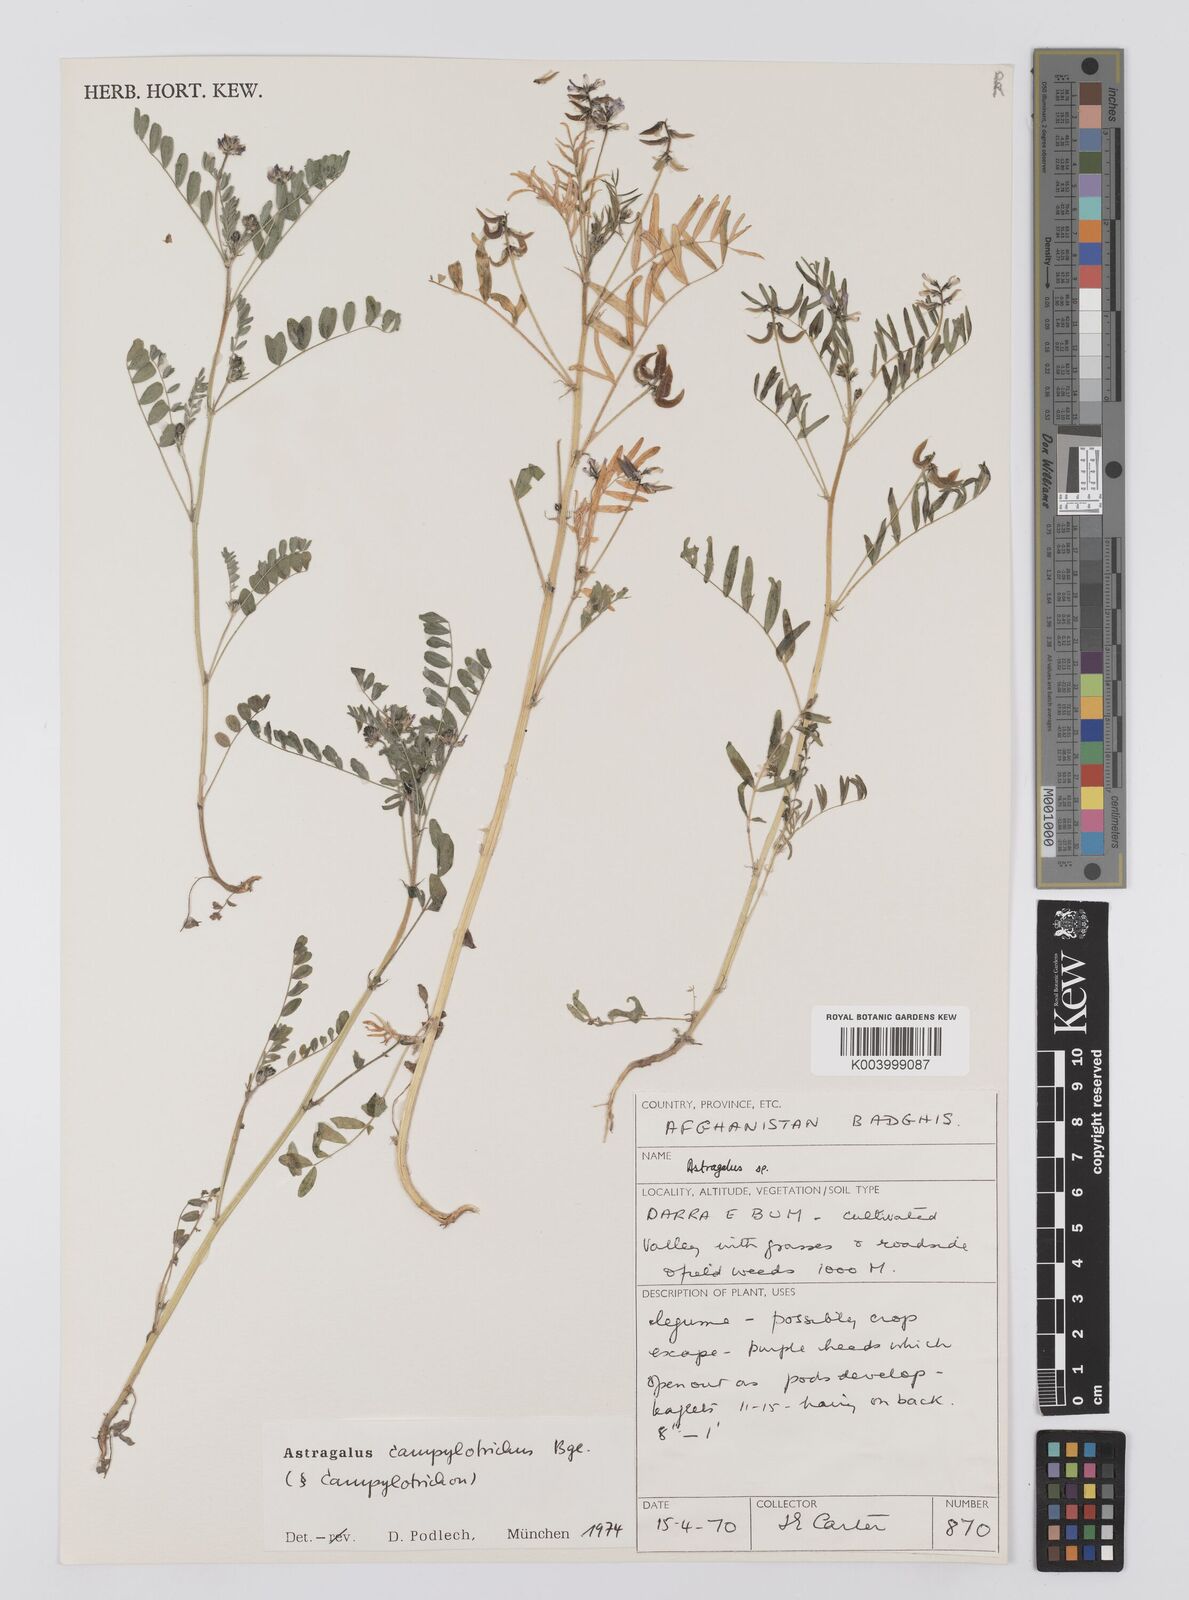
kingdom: Plantae
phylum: Tracheophyta
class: Magnoliopsida
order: Fabales
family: Fabaceae
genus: Astragalus
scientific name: Astragalus campylotrichus
